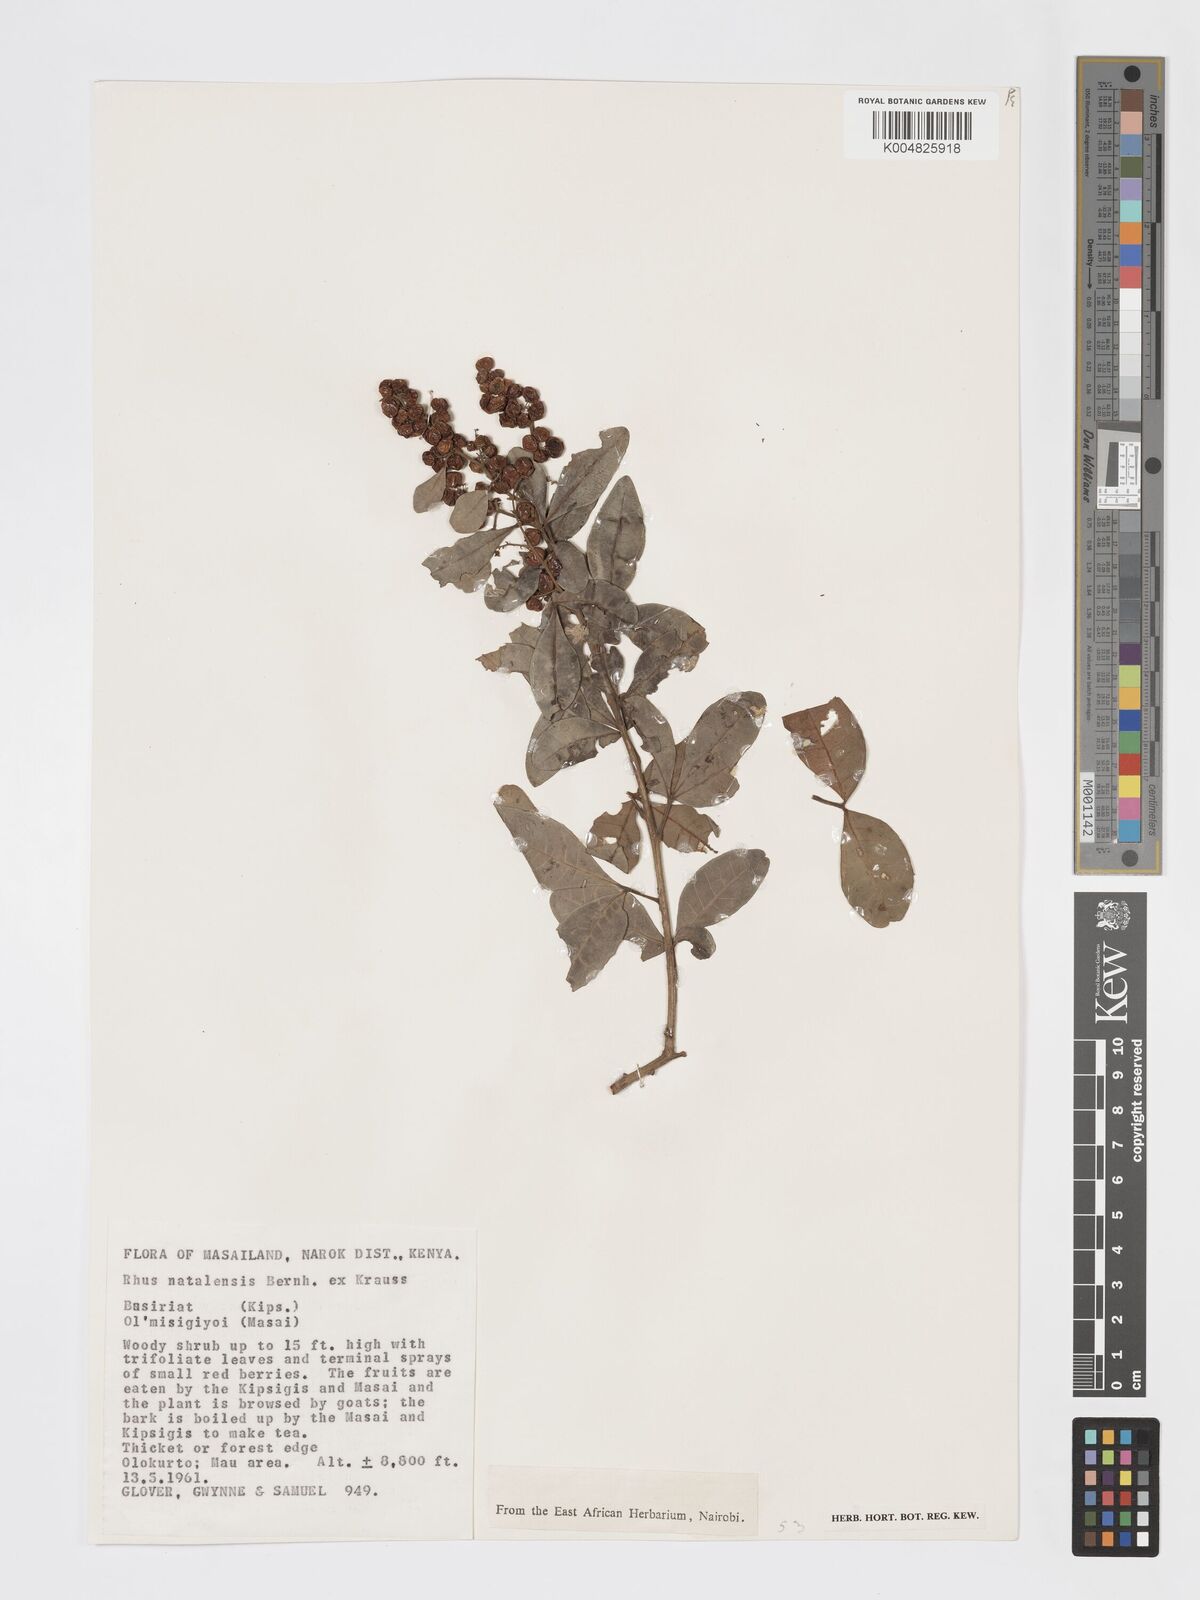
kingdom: Plantae
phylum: Tracheophyta
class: Magnoliopsida
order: Sapindales
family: Anacardiaceae
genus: Searsia
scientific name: Searsia natalensis
